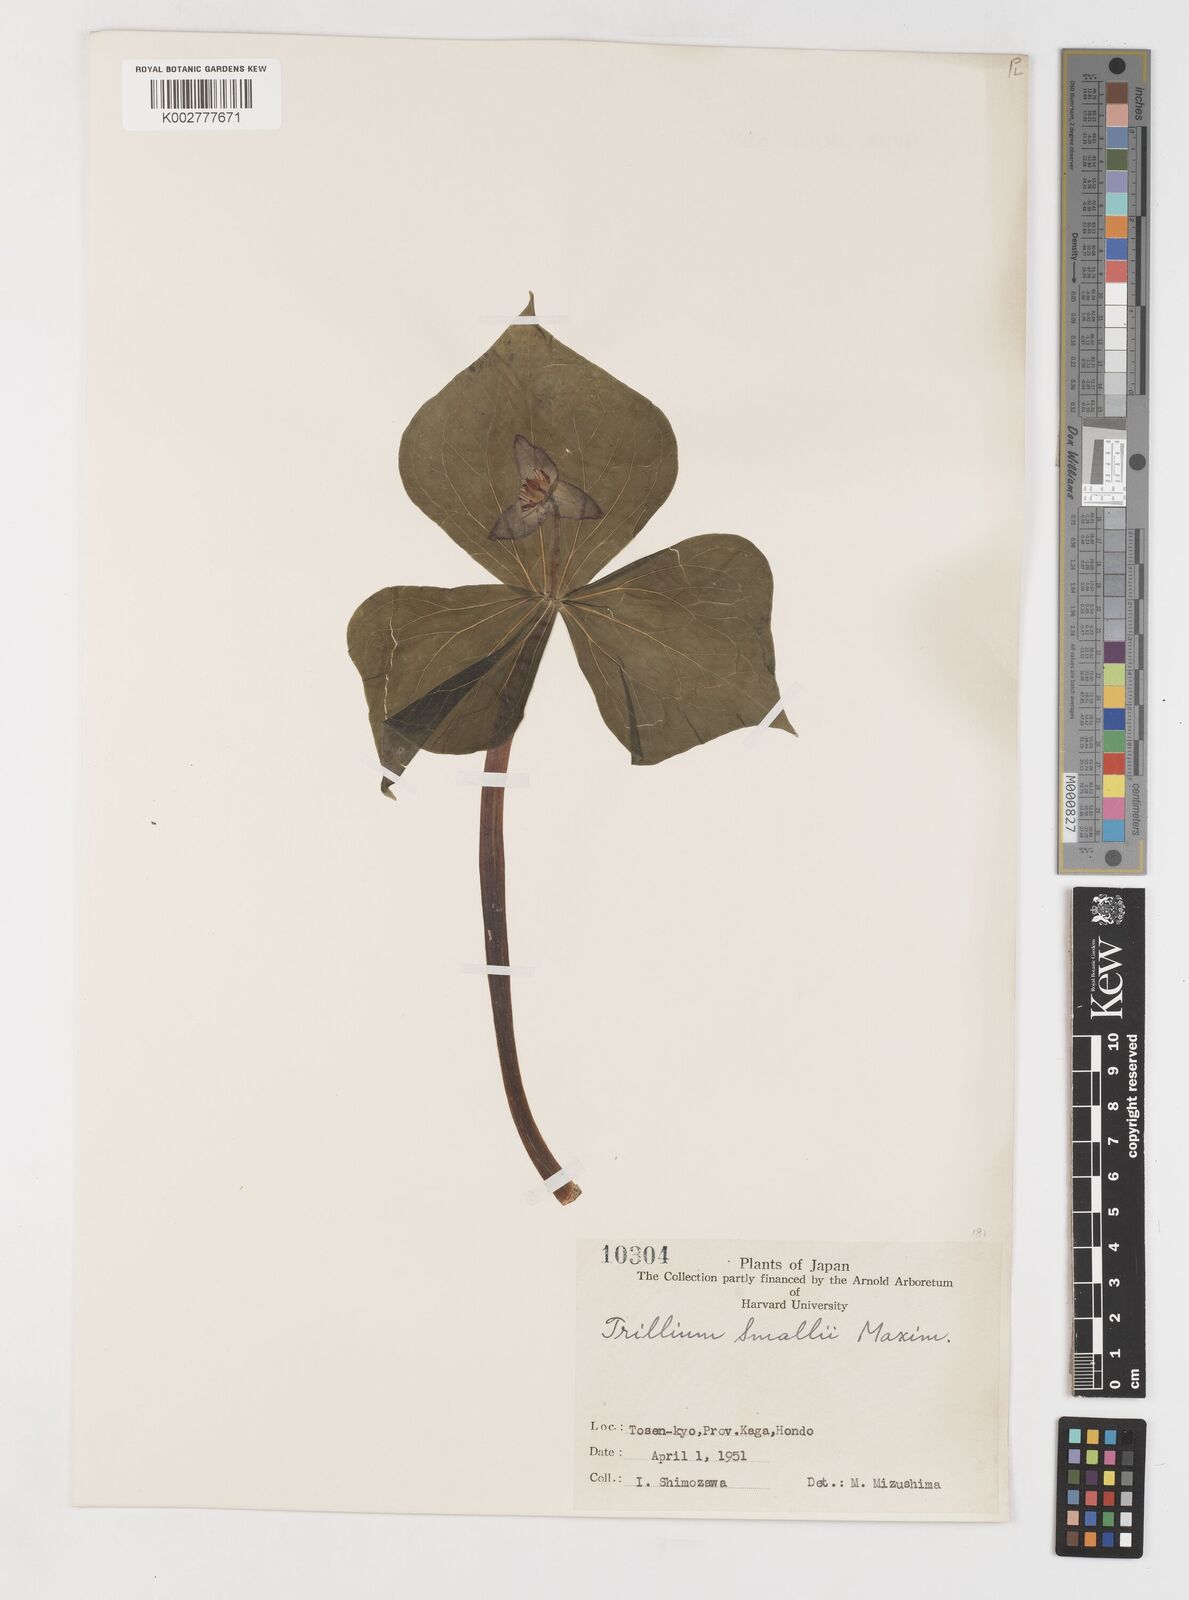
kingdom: Plantae
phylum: Tracheophyta
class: Liliopsida
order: Liliales
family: Melanthiaceae
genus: Trillium
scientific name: Trillium smallii
